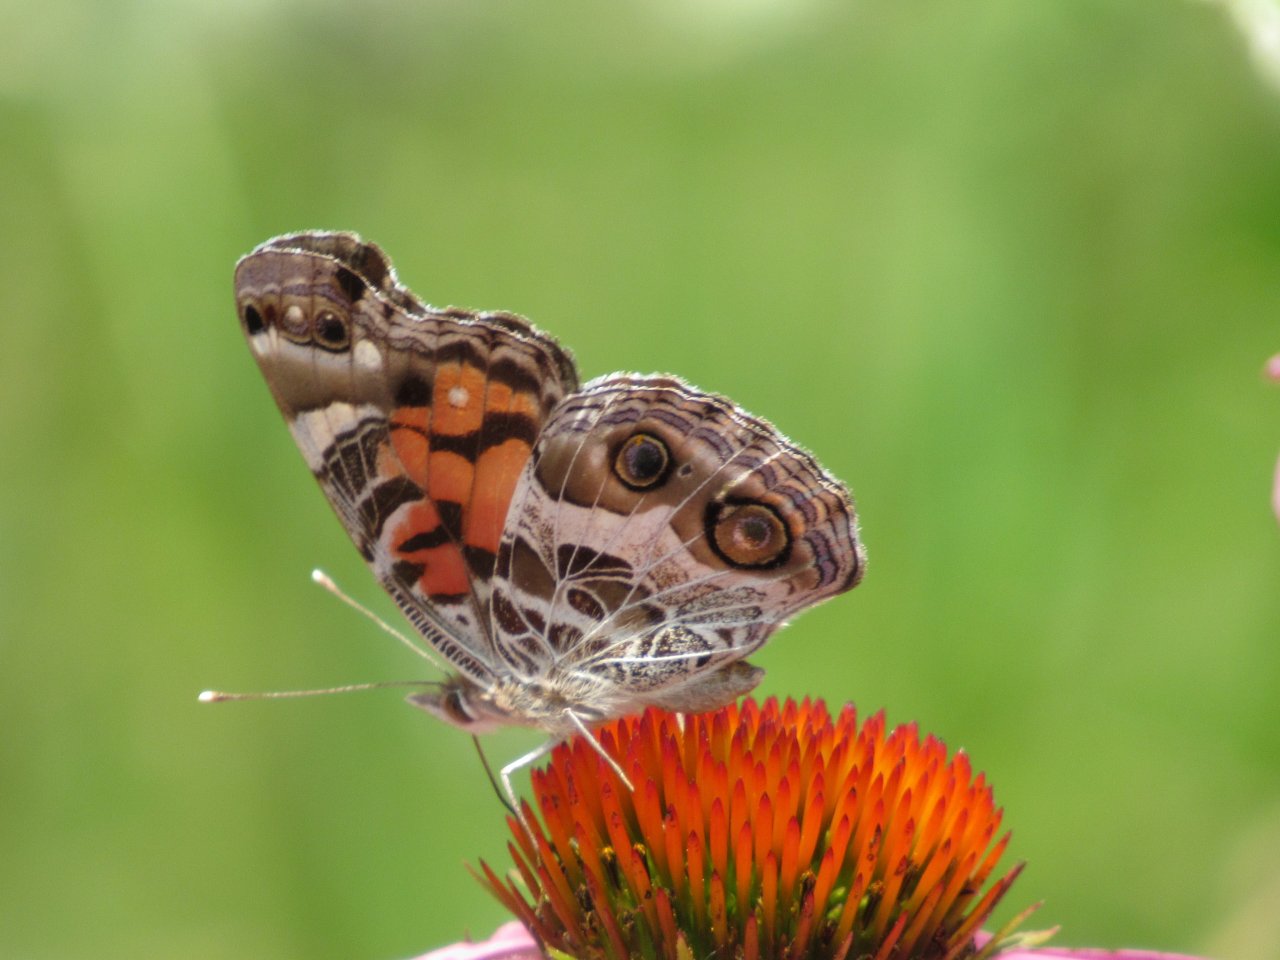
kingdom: Animalia
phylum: Arthropoda
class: Insecta
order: Lepidoptera
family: Nymphalidae
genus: Vanessa
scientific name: Vanessa virginiensis
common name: American Lady
